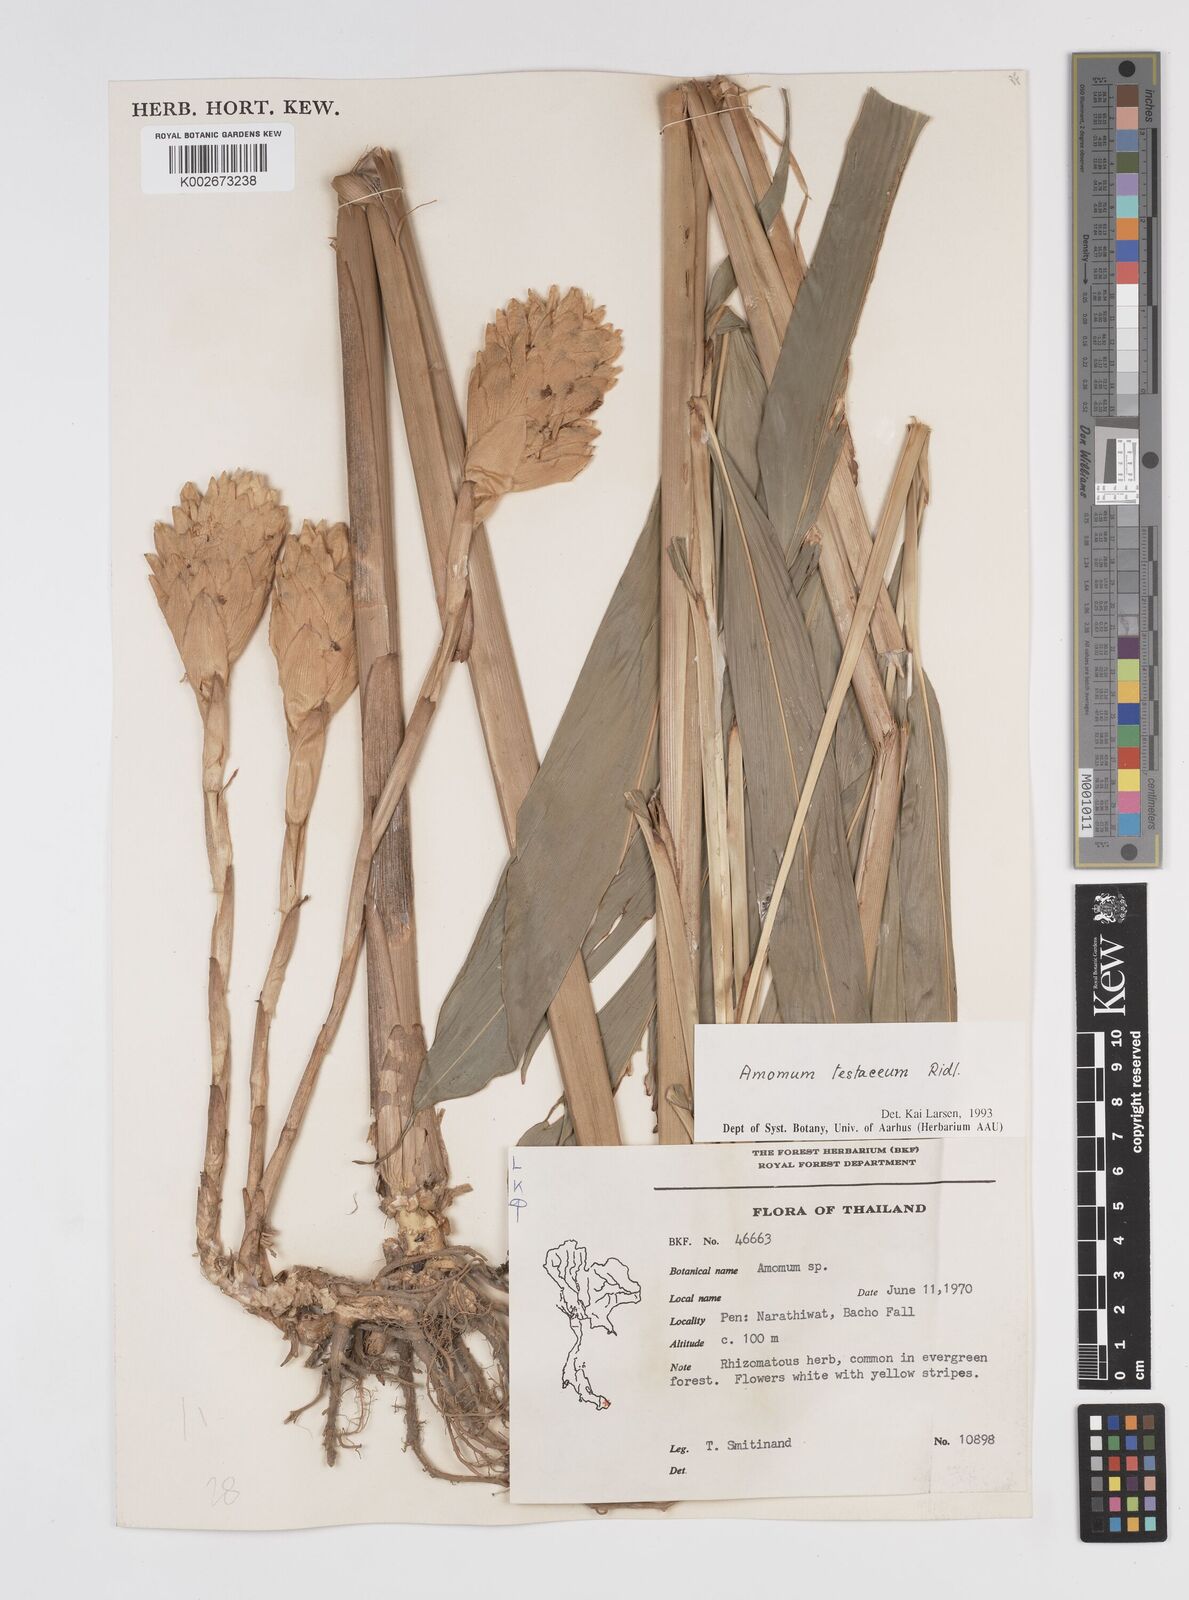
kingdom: Plantae
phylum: Tracheophyta
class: Liliopsida
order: Zingiberales
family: Zingiberaceae
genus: Wurfbainia
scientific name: Wurfbainia testacea
